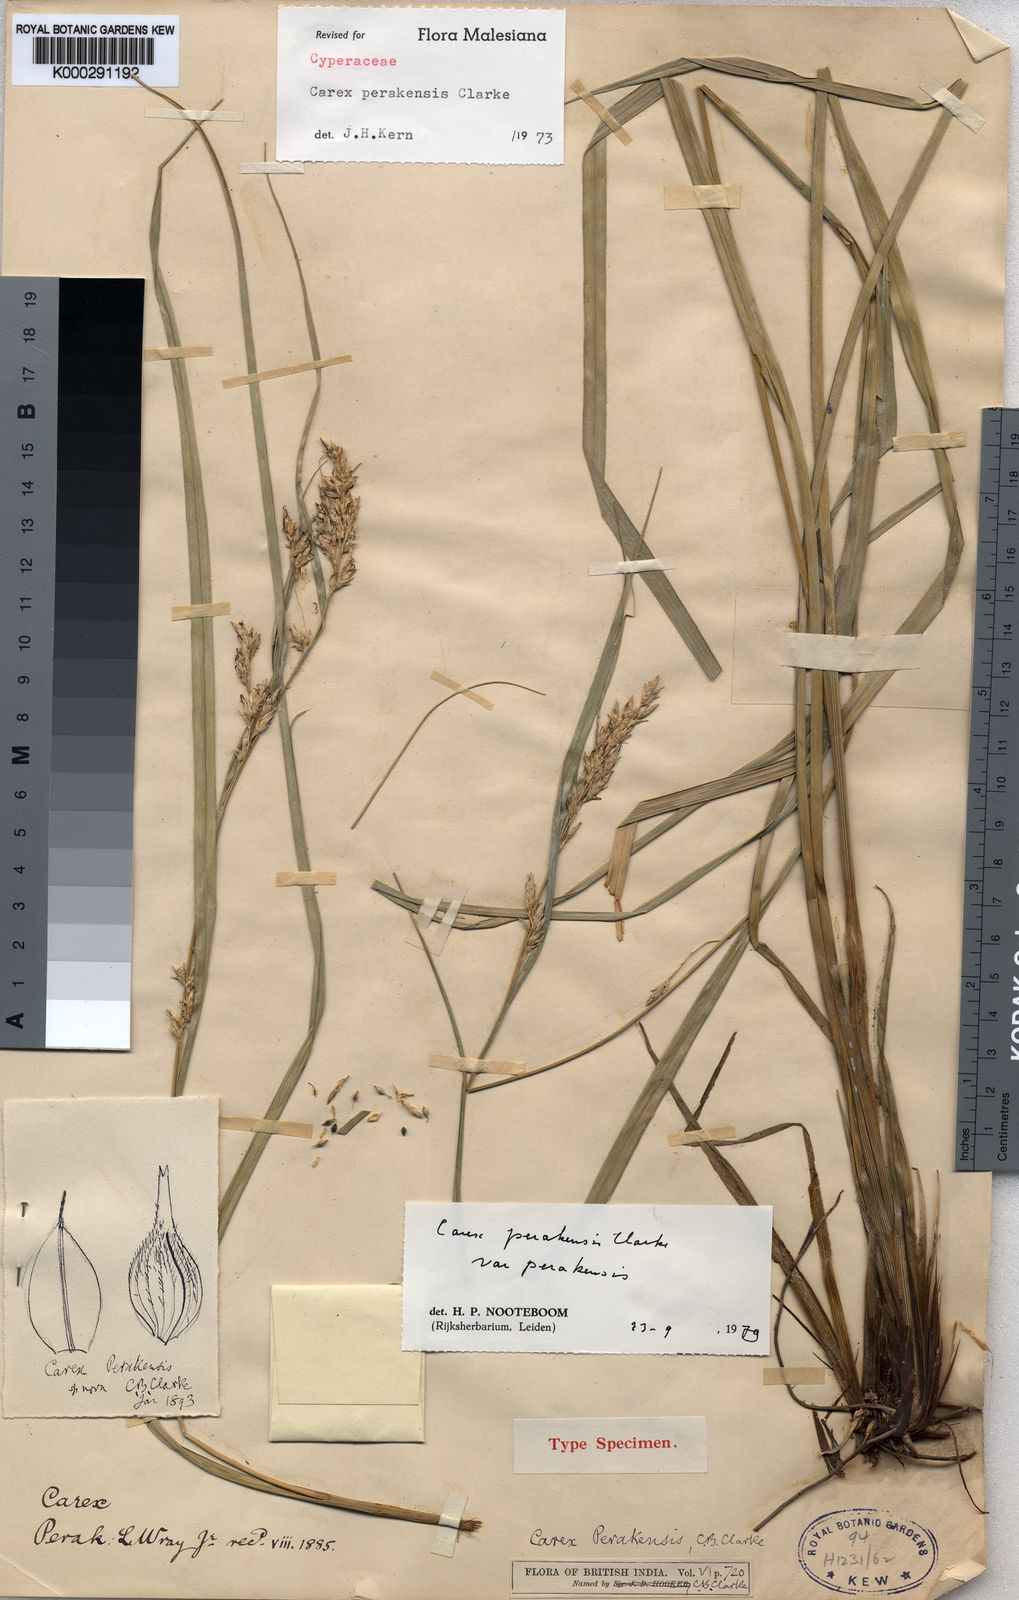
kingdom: Plantae
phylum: Tracheophyta
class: Liliopsida
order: Poales
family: Cyperaceae
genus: Carex
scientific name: Carex perakensis
